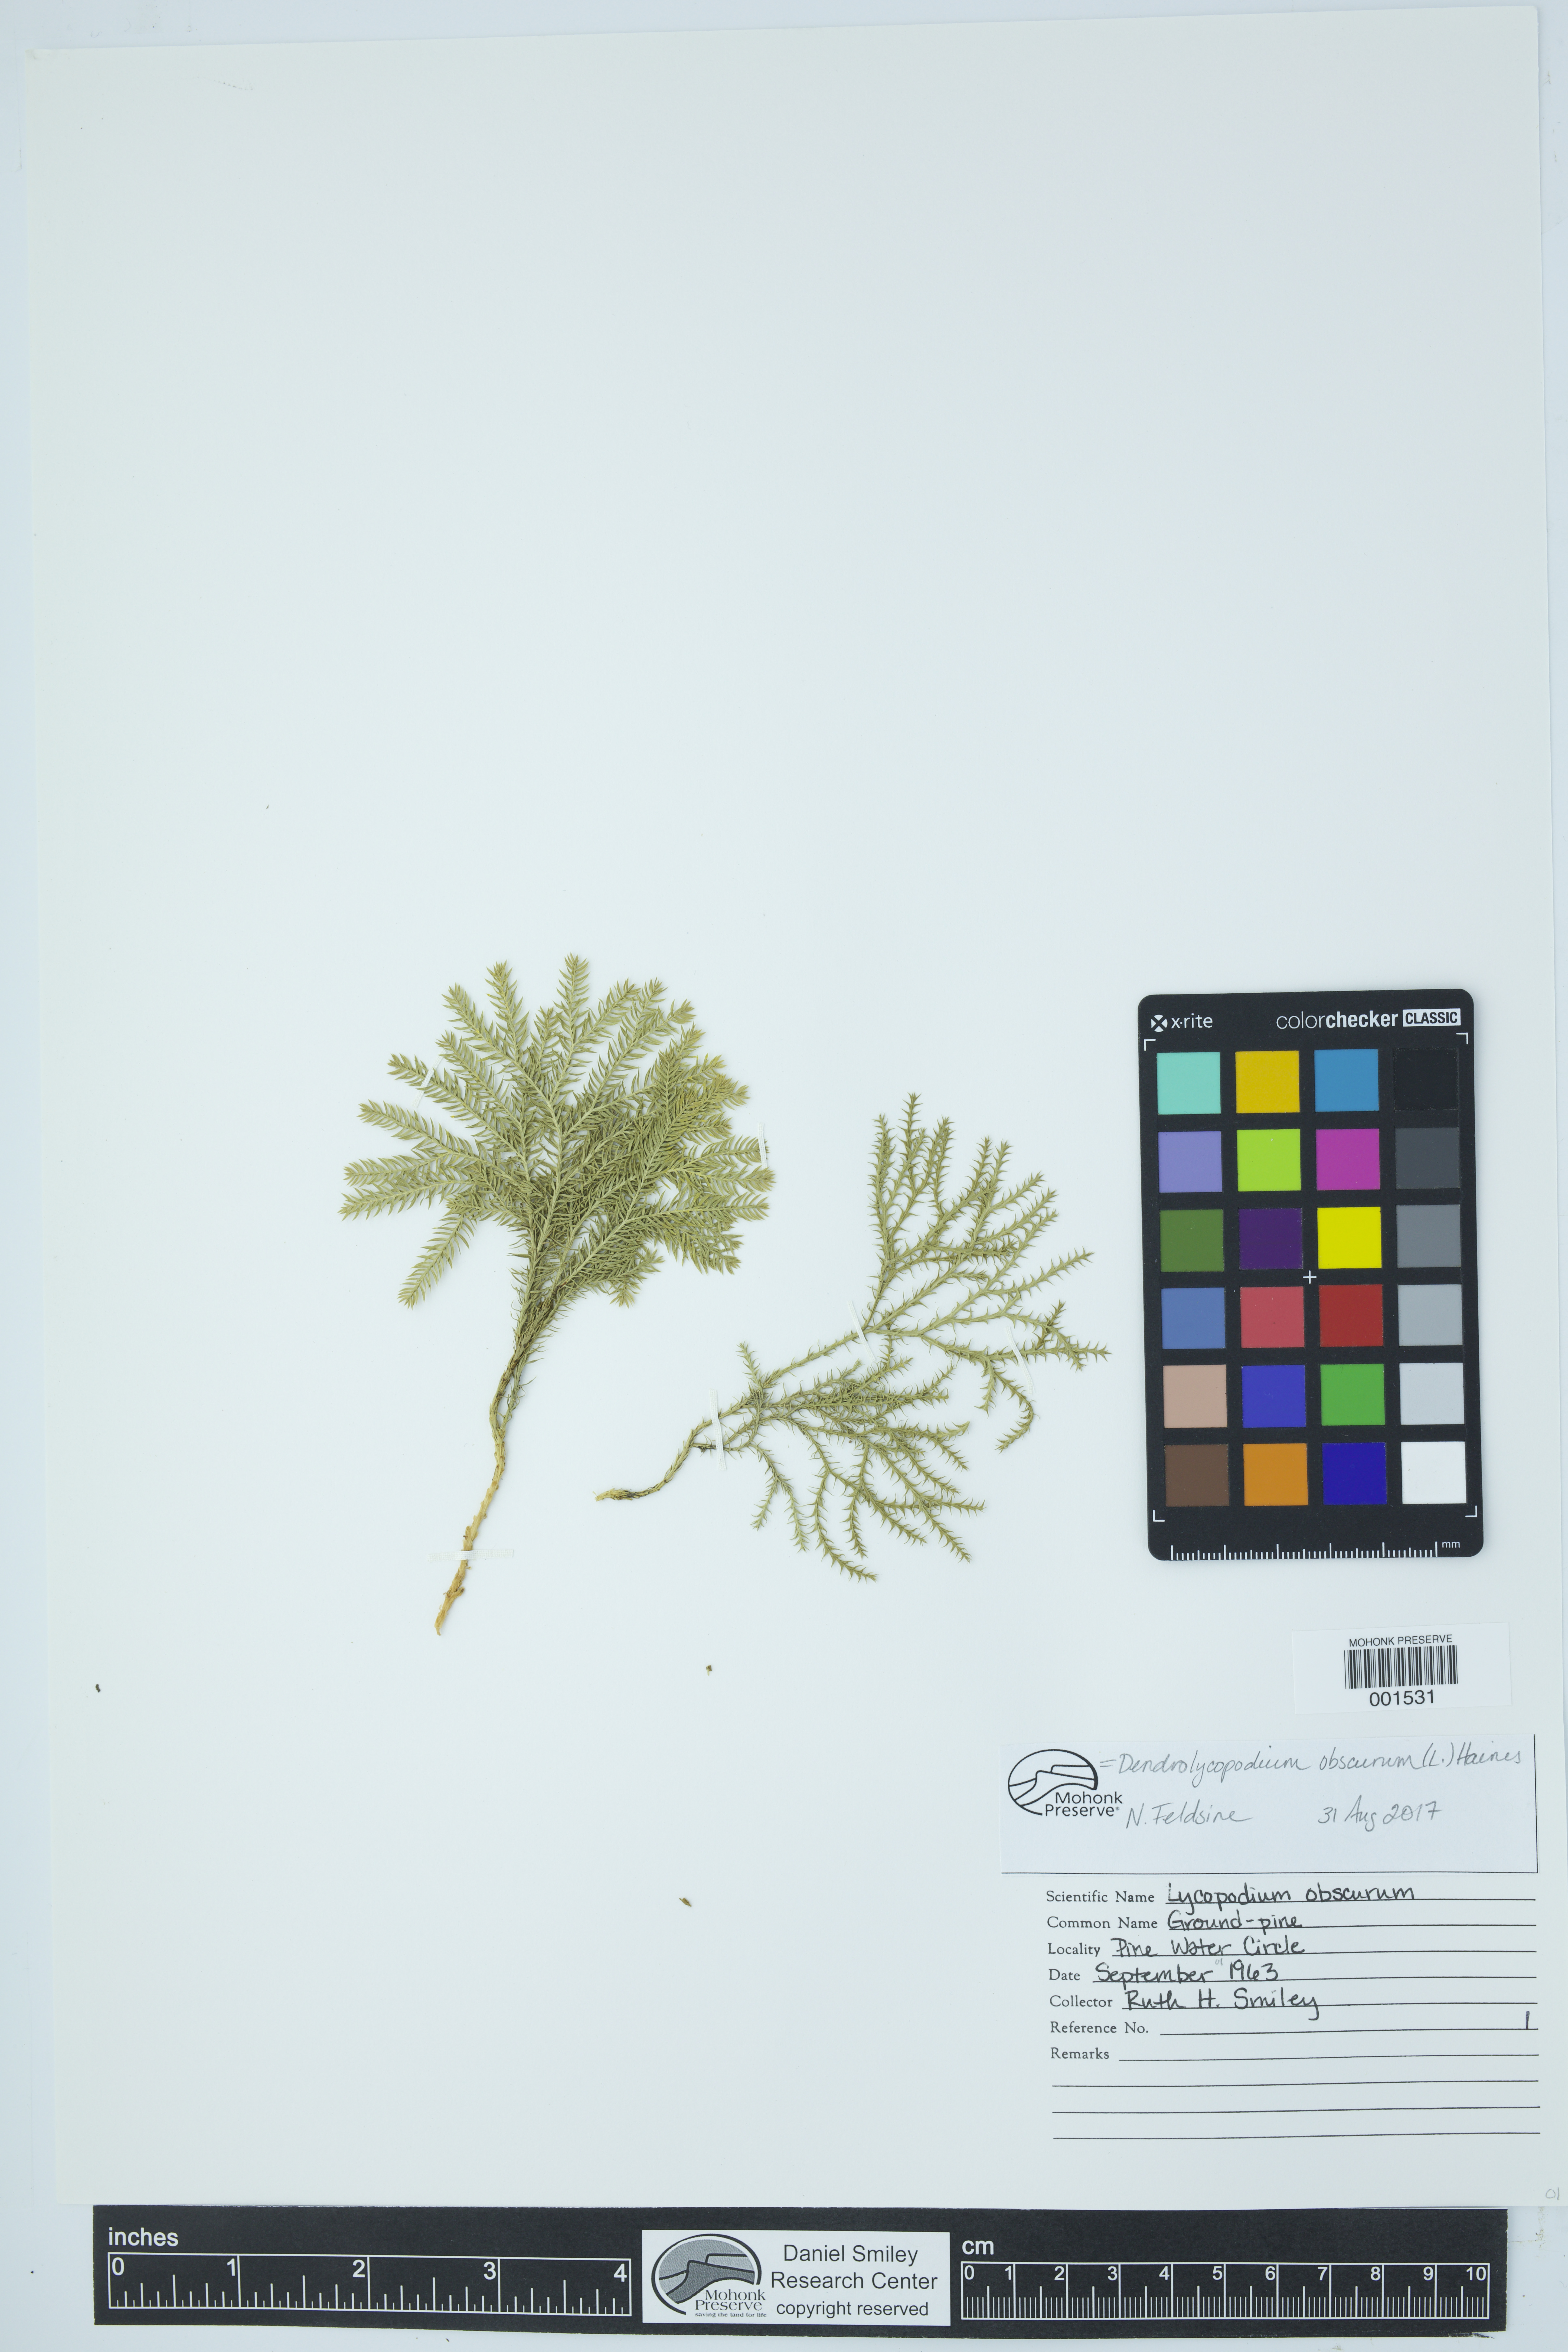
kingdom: Plantae
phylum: Tracheophyta
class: Lycopodiopsida
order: Lycopodiales
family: Lycopodiaceae
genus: Dendrolycopodium
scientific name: Dendrolycopodium obscurum
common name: Common ground-pine
